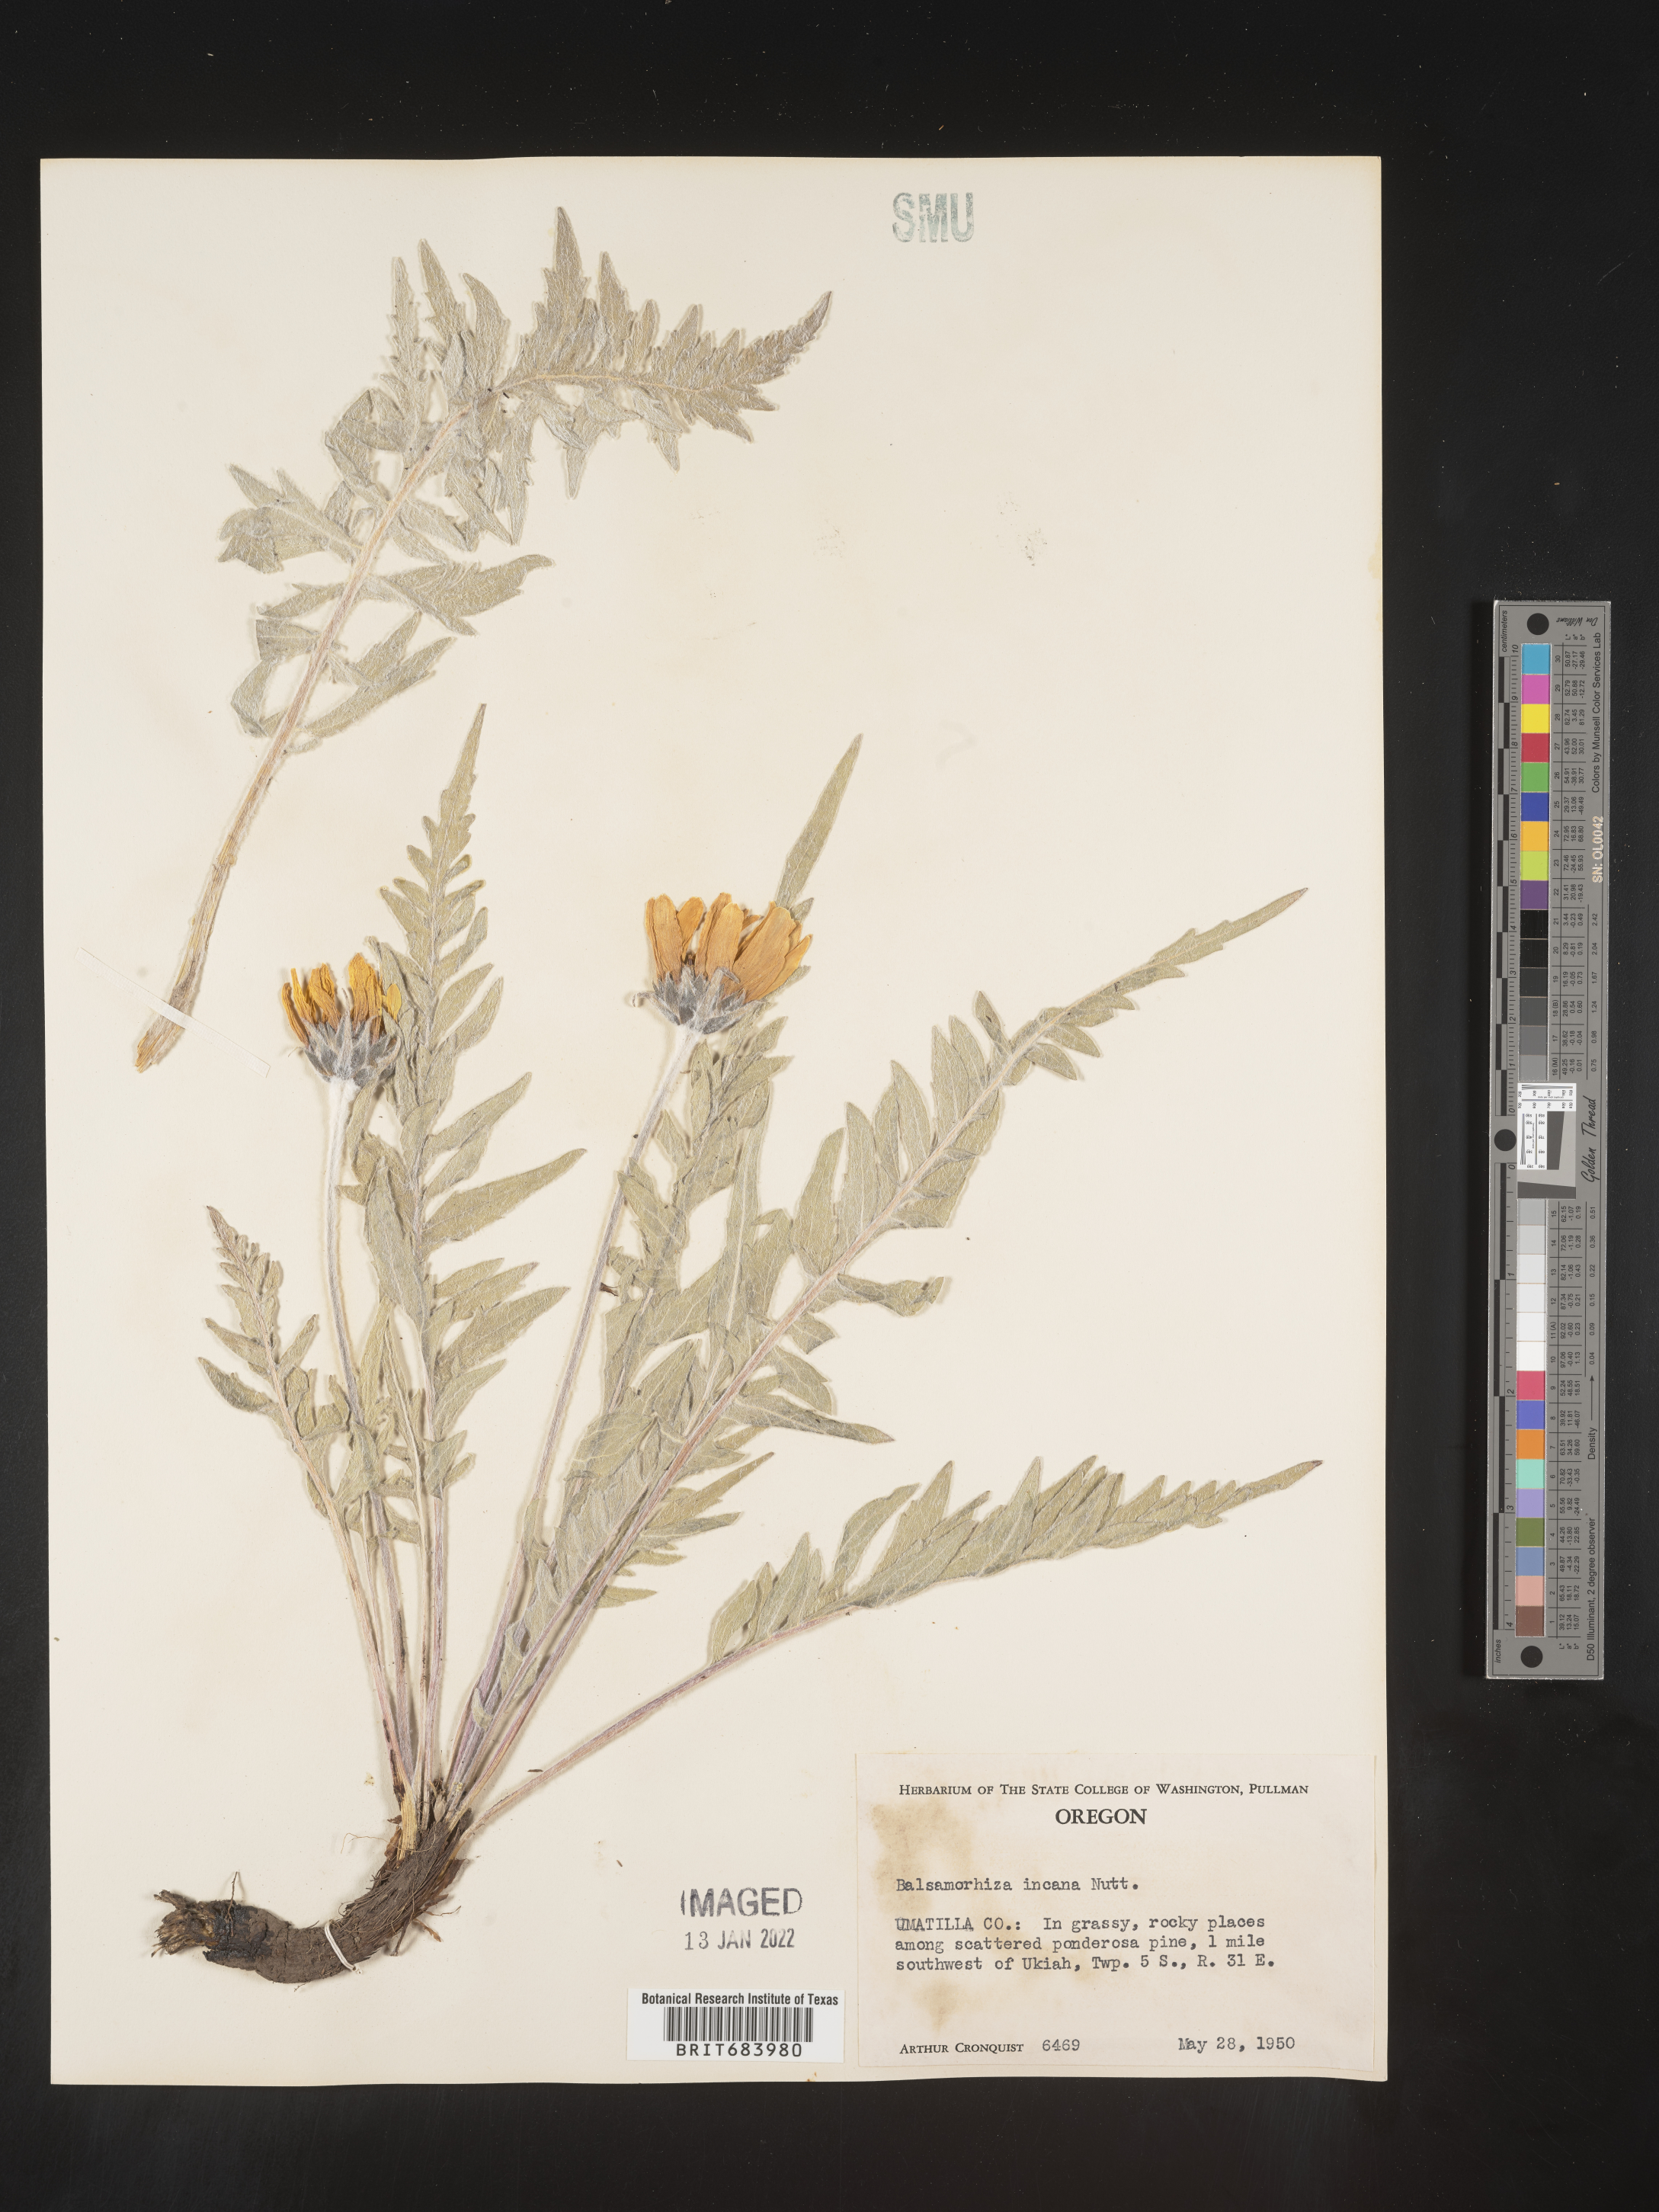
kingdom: Plantae
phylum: Tracheophyta
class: Magnoliopsida
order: Asterales
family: Asteraceae
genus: Balsamorhiza
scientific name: Balsamorhiza
